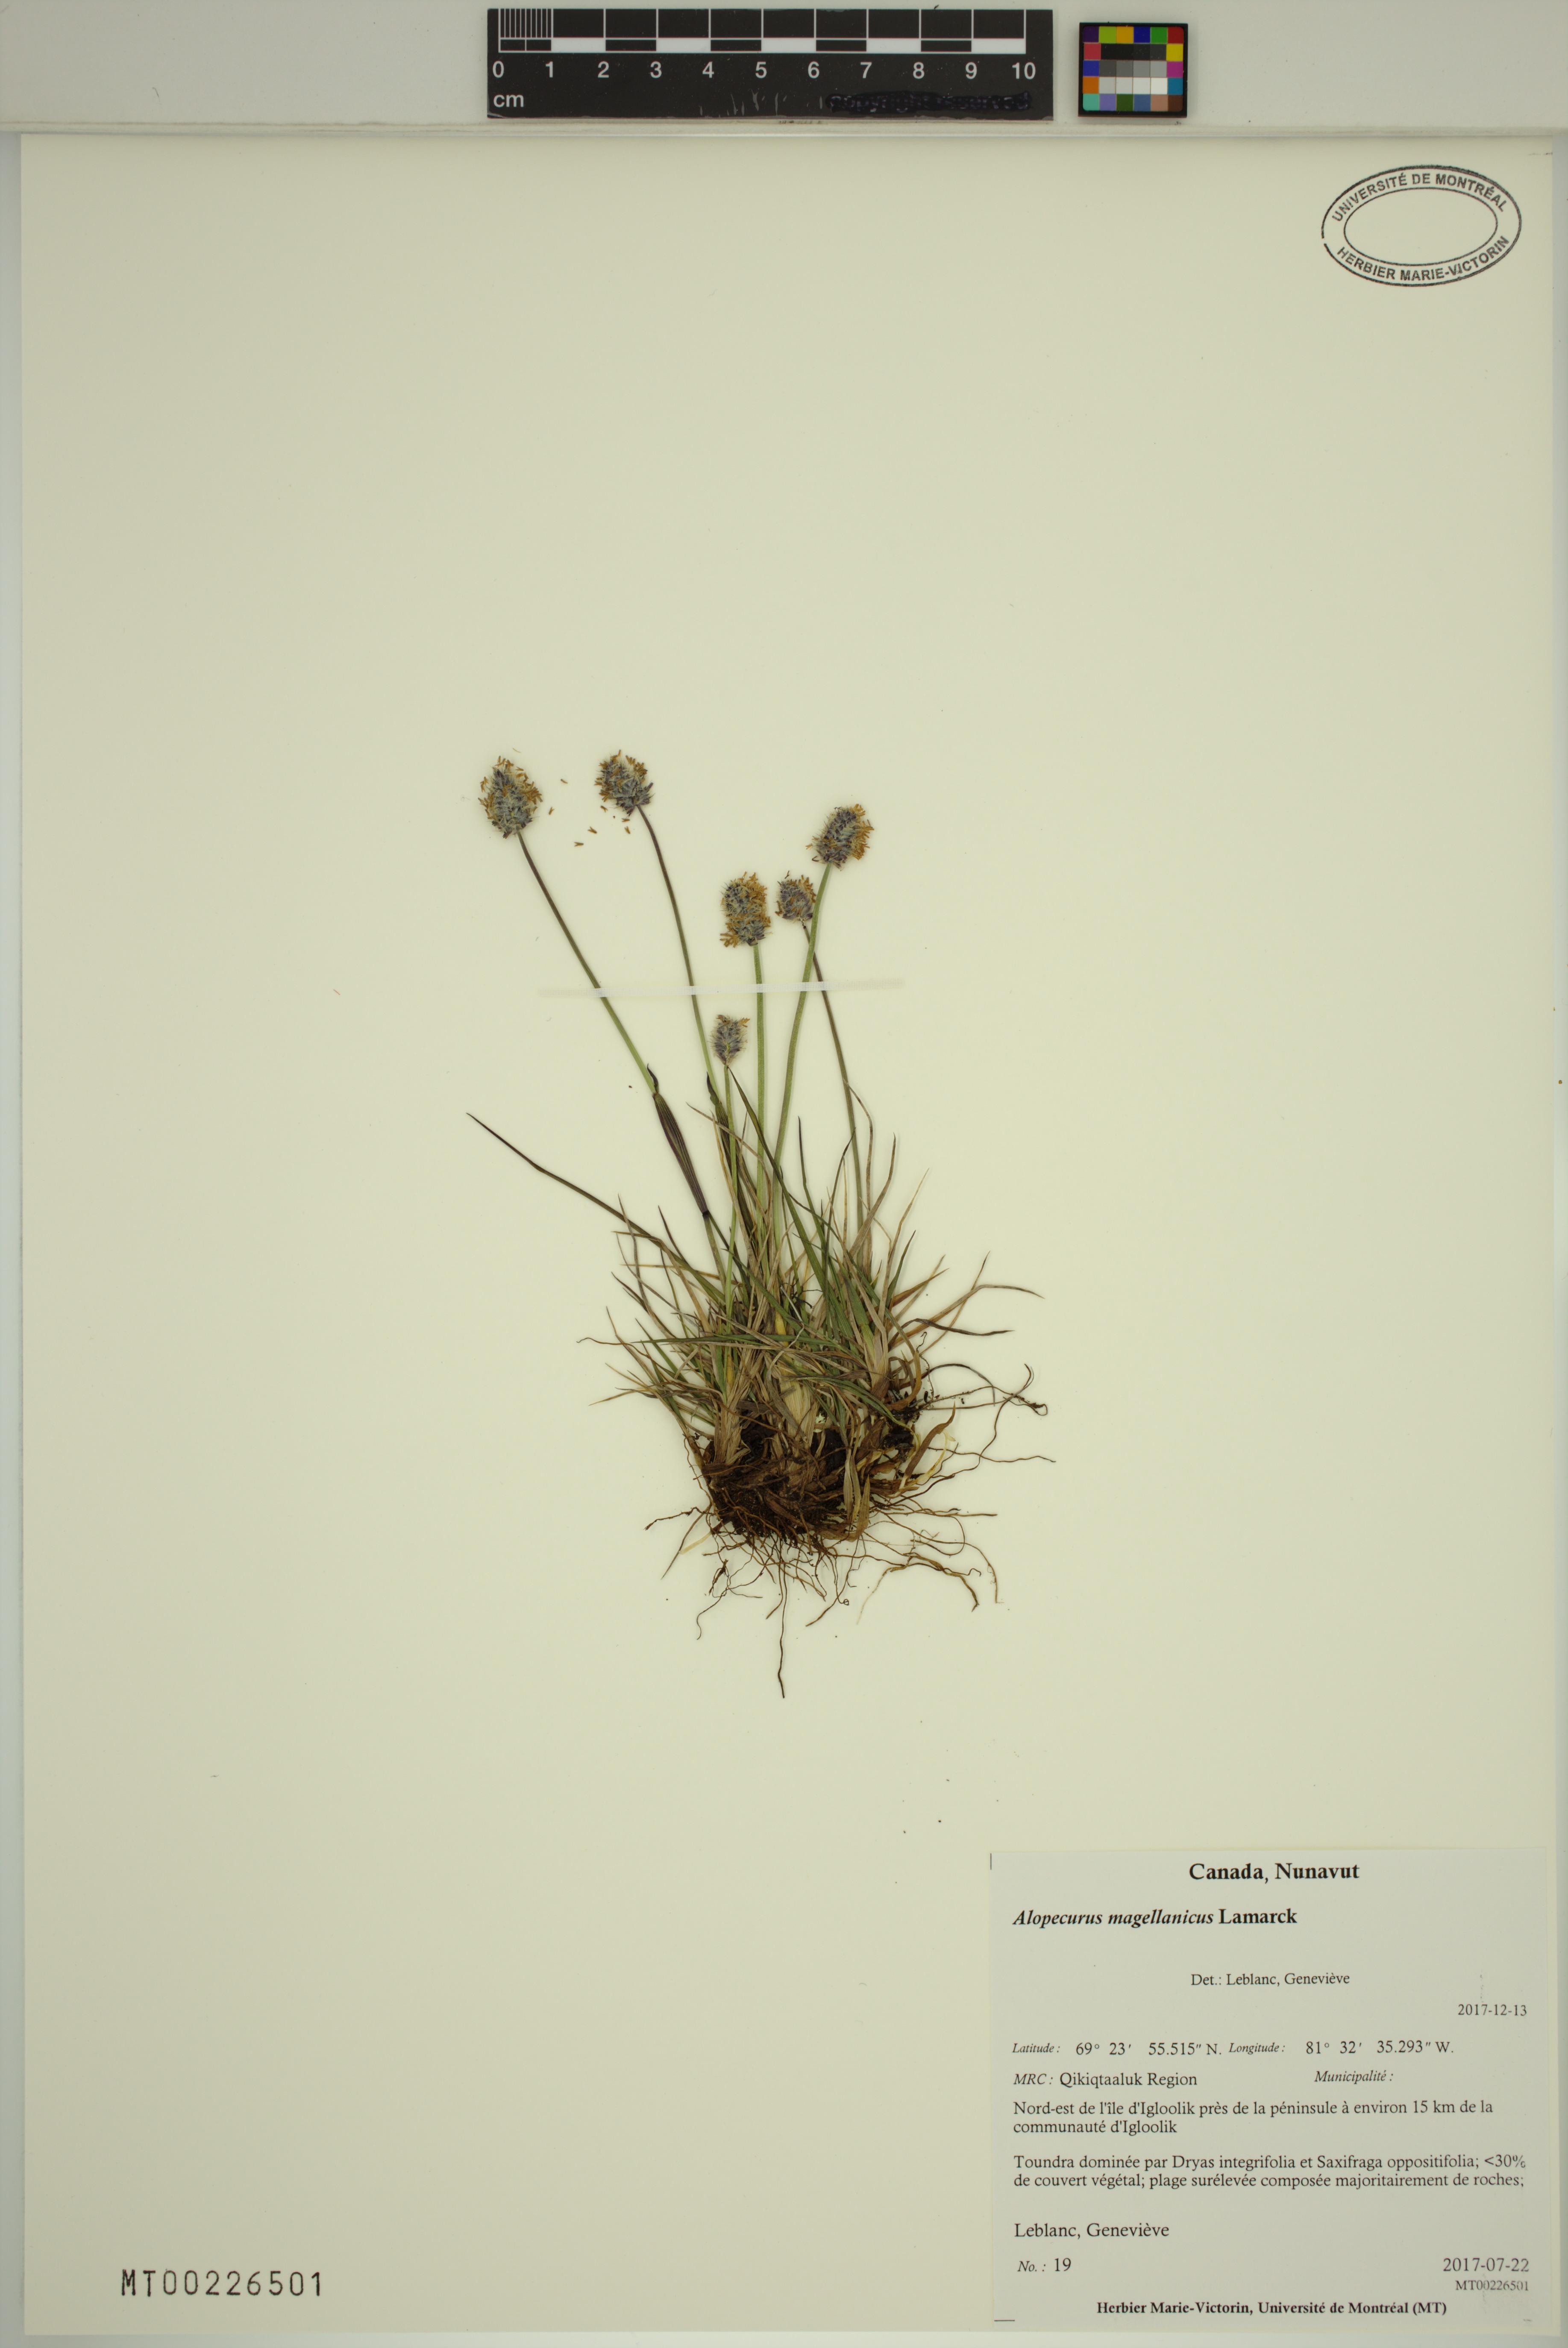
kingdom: Plantae
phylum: Tracheophyta
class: Liliopsida
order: Poales
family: Poaceae
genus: Alopecurus
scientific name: Alopecurus magellanicus
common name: Alpine foxtail
